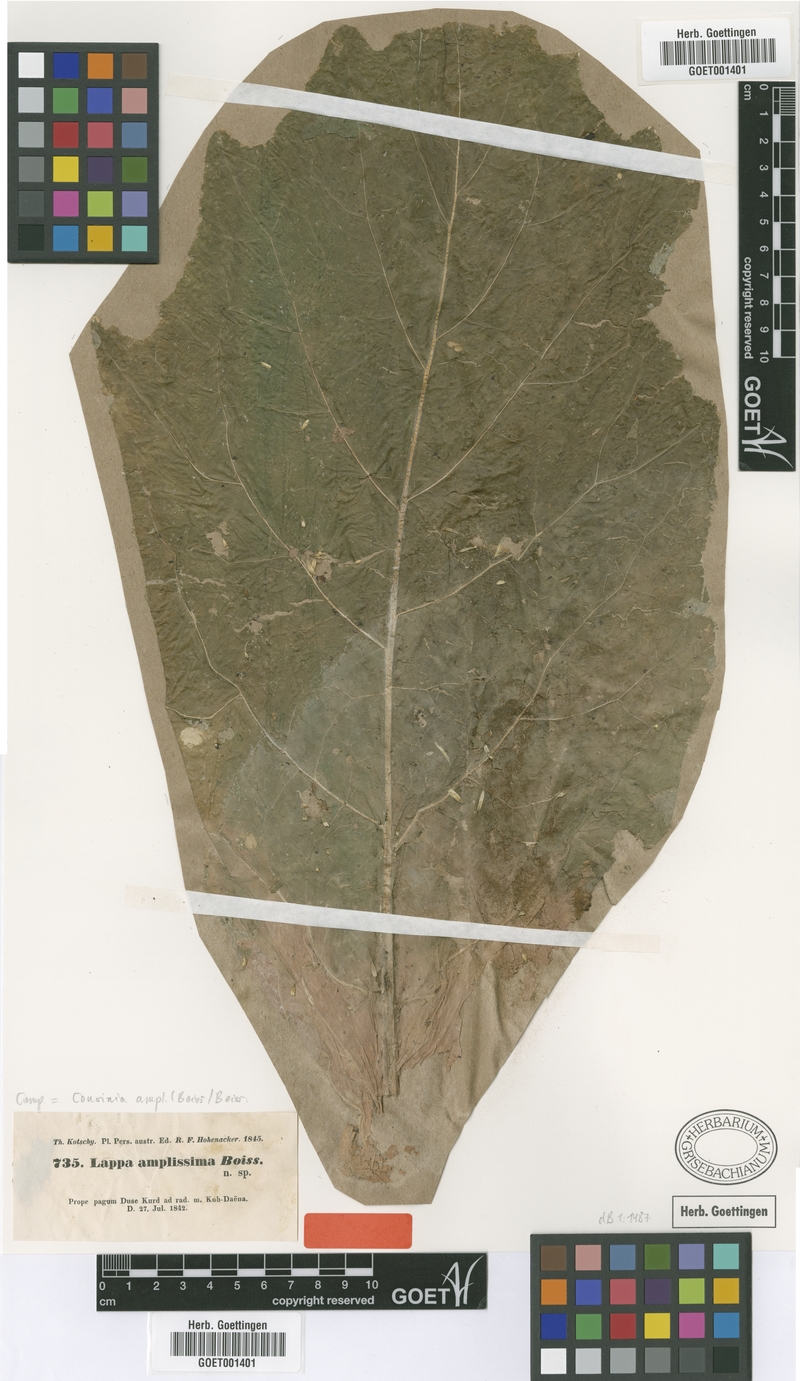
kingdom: Plantae
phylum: Tracheophyta
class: Magnoliopsida
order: Asterales
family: Asteraceae
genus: Arctium
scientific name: Arctium amplissimum
